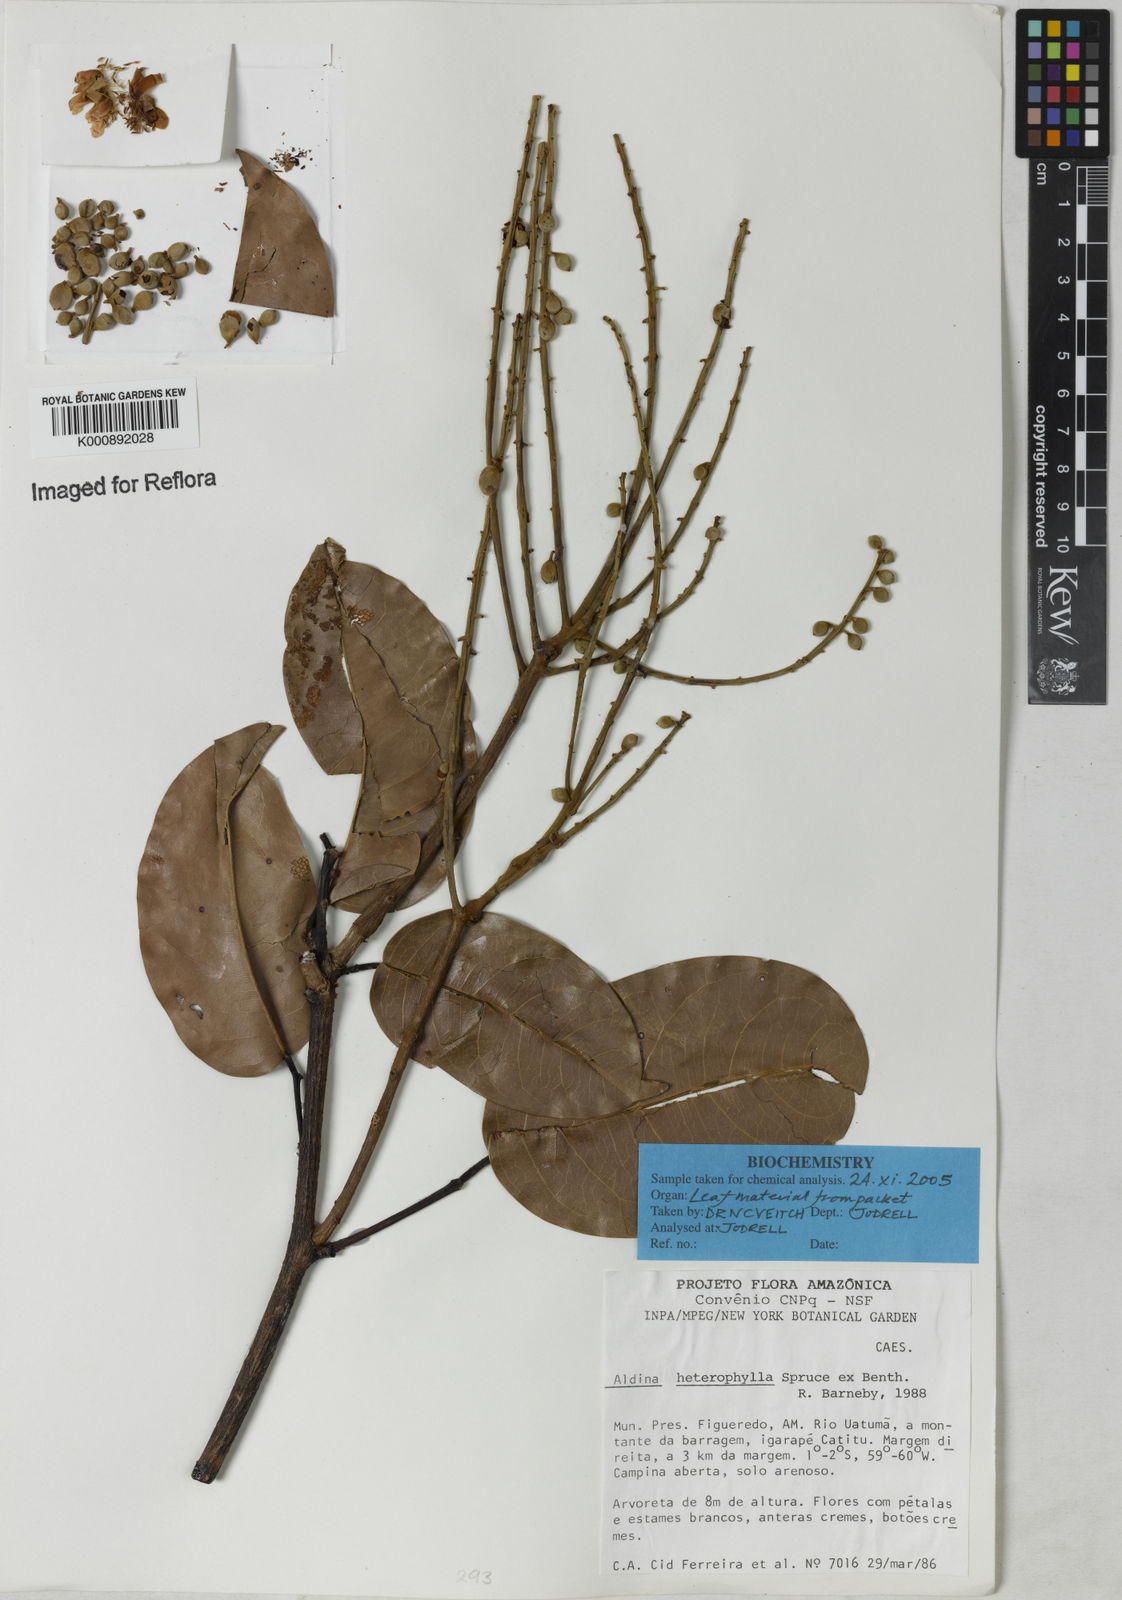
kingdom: Plantae
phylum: Tracheophyta
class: Magnoliopsida
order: Fabales
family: Fabaceae
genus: Aldina
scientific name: Aldina heterophylla
